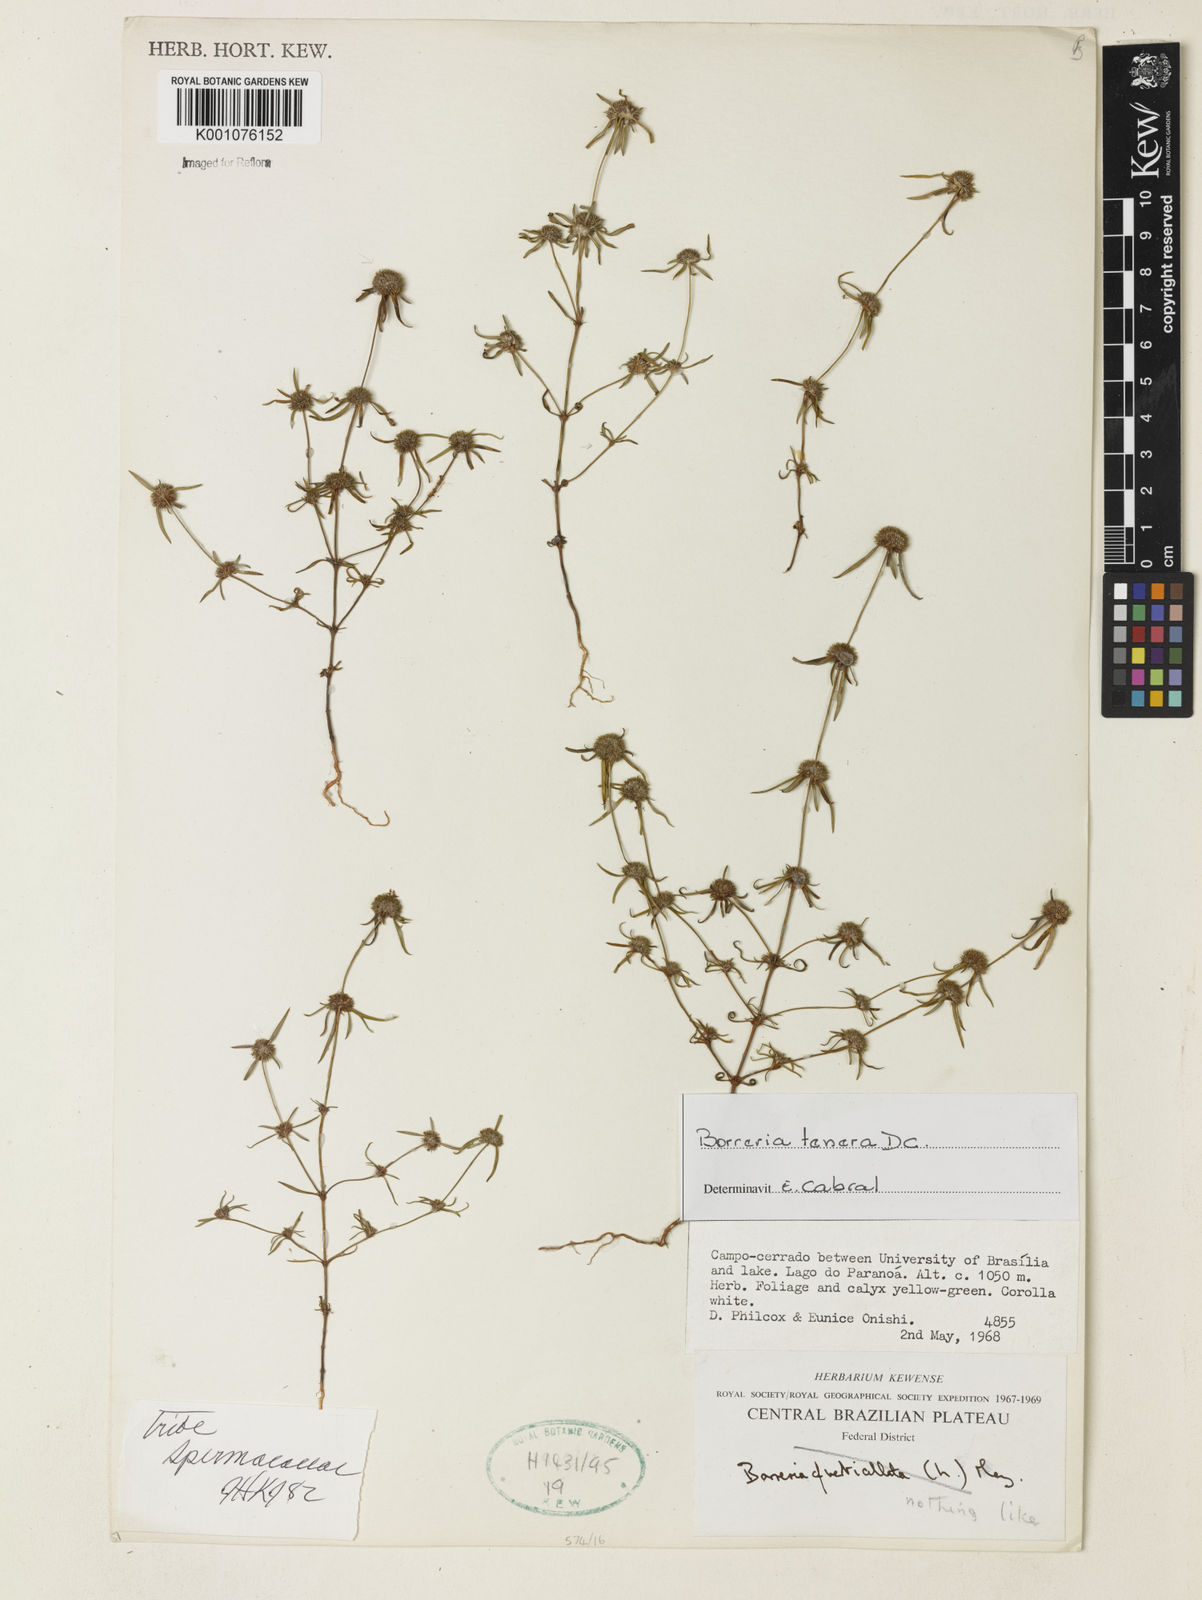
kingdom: Plantae
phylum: Tracheophyta
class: Magnoliopsida
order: Gentianales
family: Rubiaceae
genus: Spermacoce
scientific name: Spermacoce ocymoides
